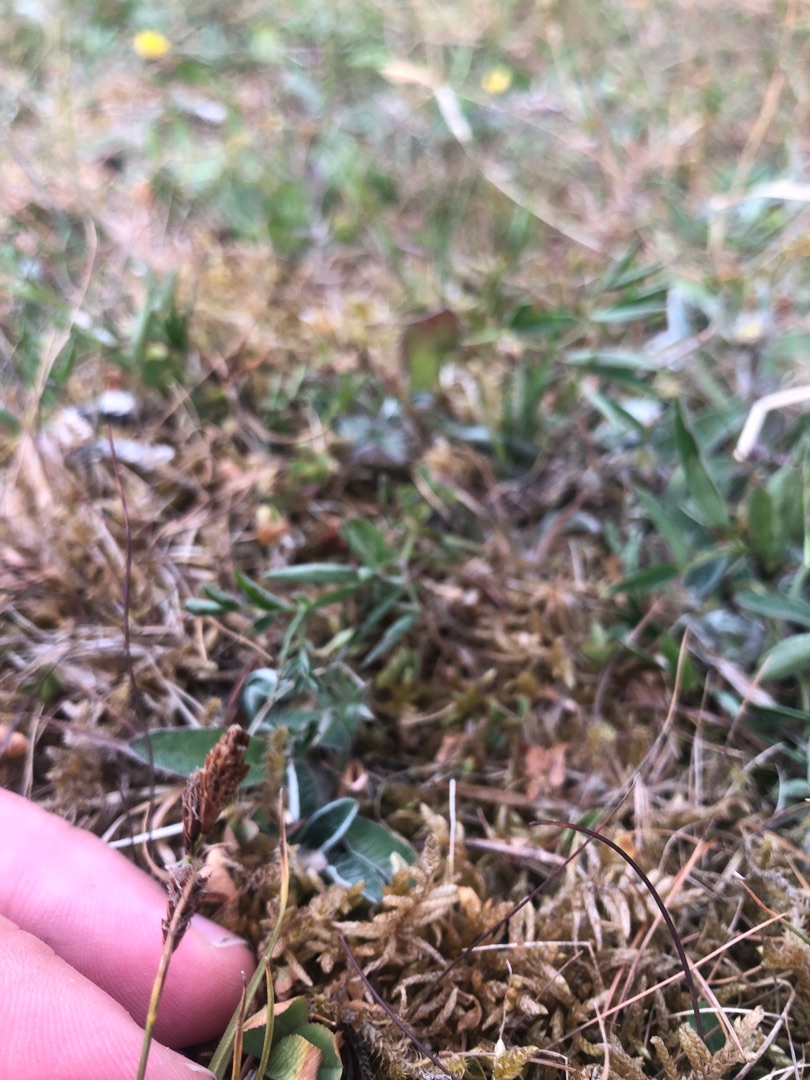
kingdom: Plantae
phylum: Tracheophyta
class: Liliopsida
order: Poales
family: Cyperaceae
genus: Carex
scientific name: Carex caryophyllea
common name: Vår-star
